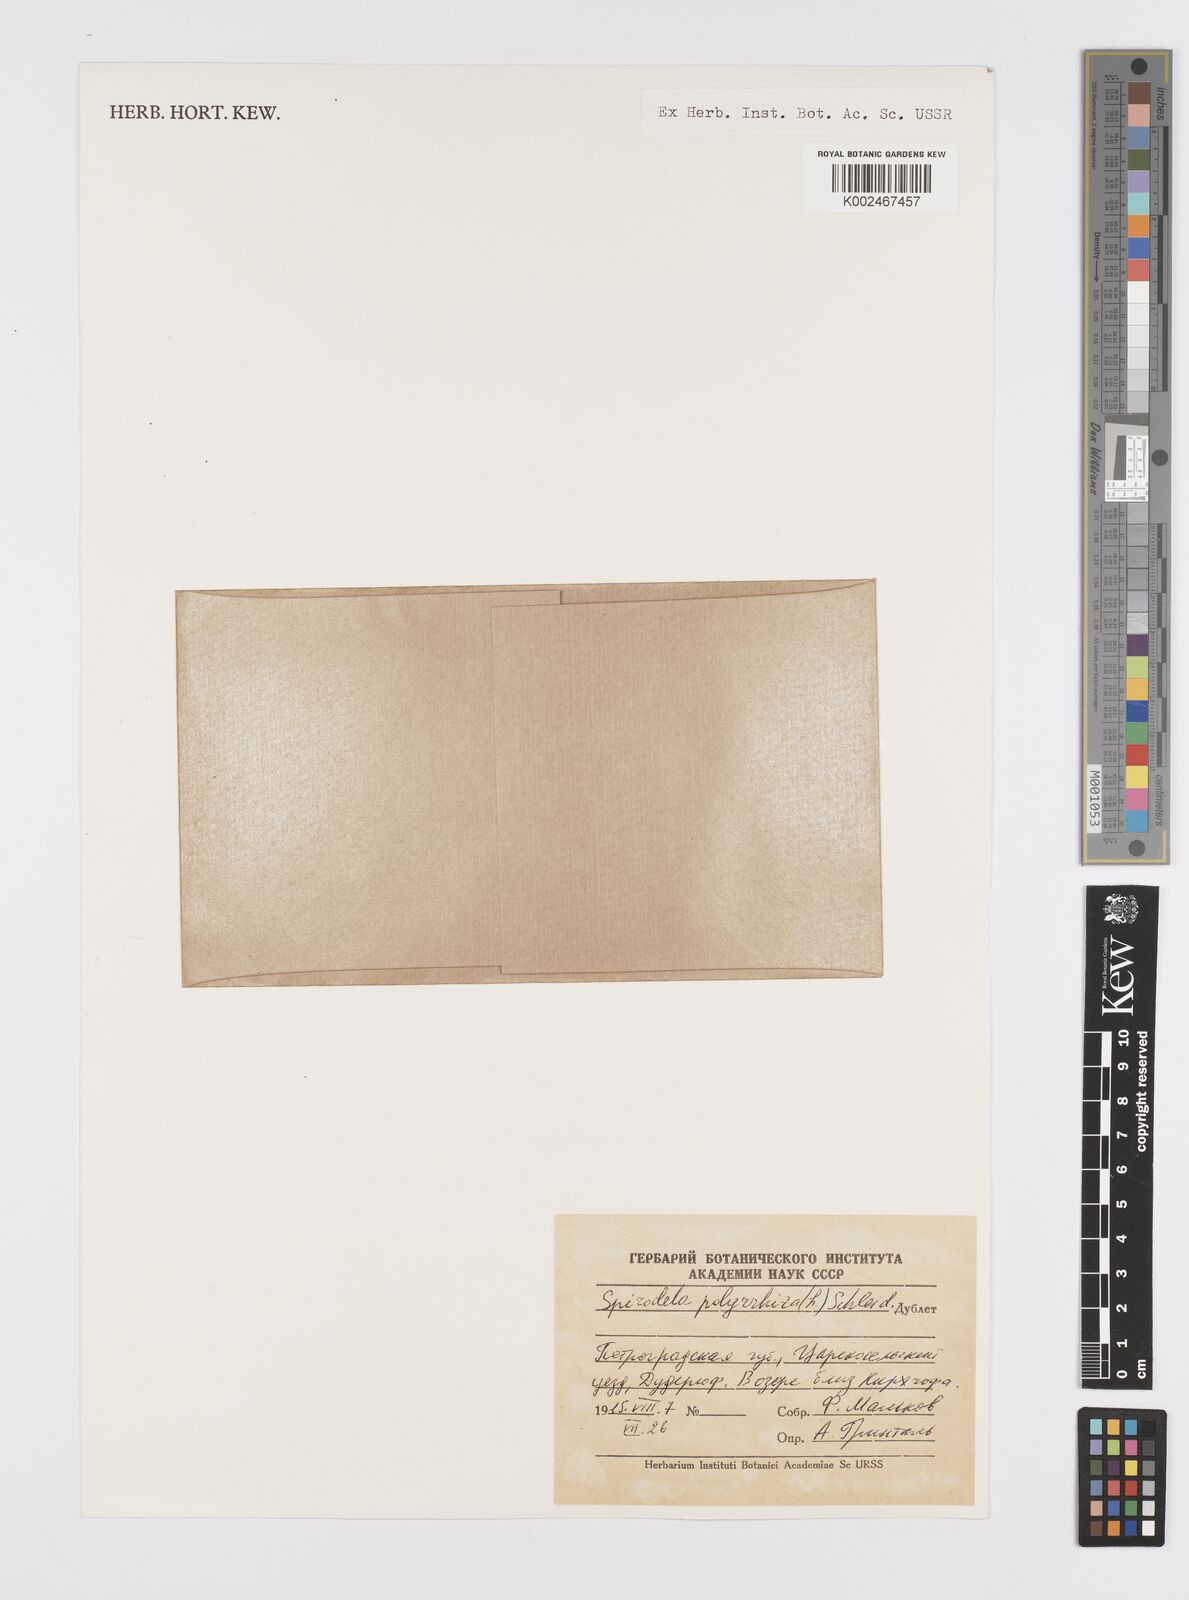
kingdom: Plantae
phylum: Tracheophyta
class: Liliopsida
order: Alismatales
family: Araceae
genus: Spirodela
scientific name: Spirodela polyrhiza
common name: Great duckweed
